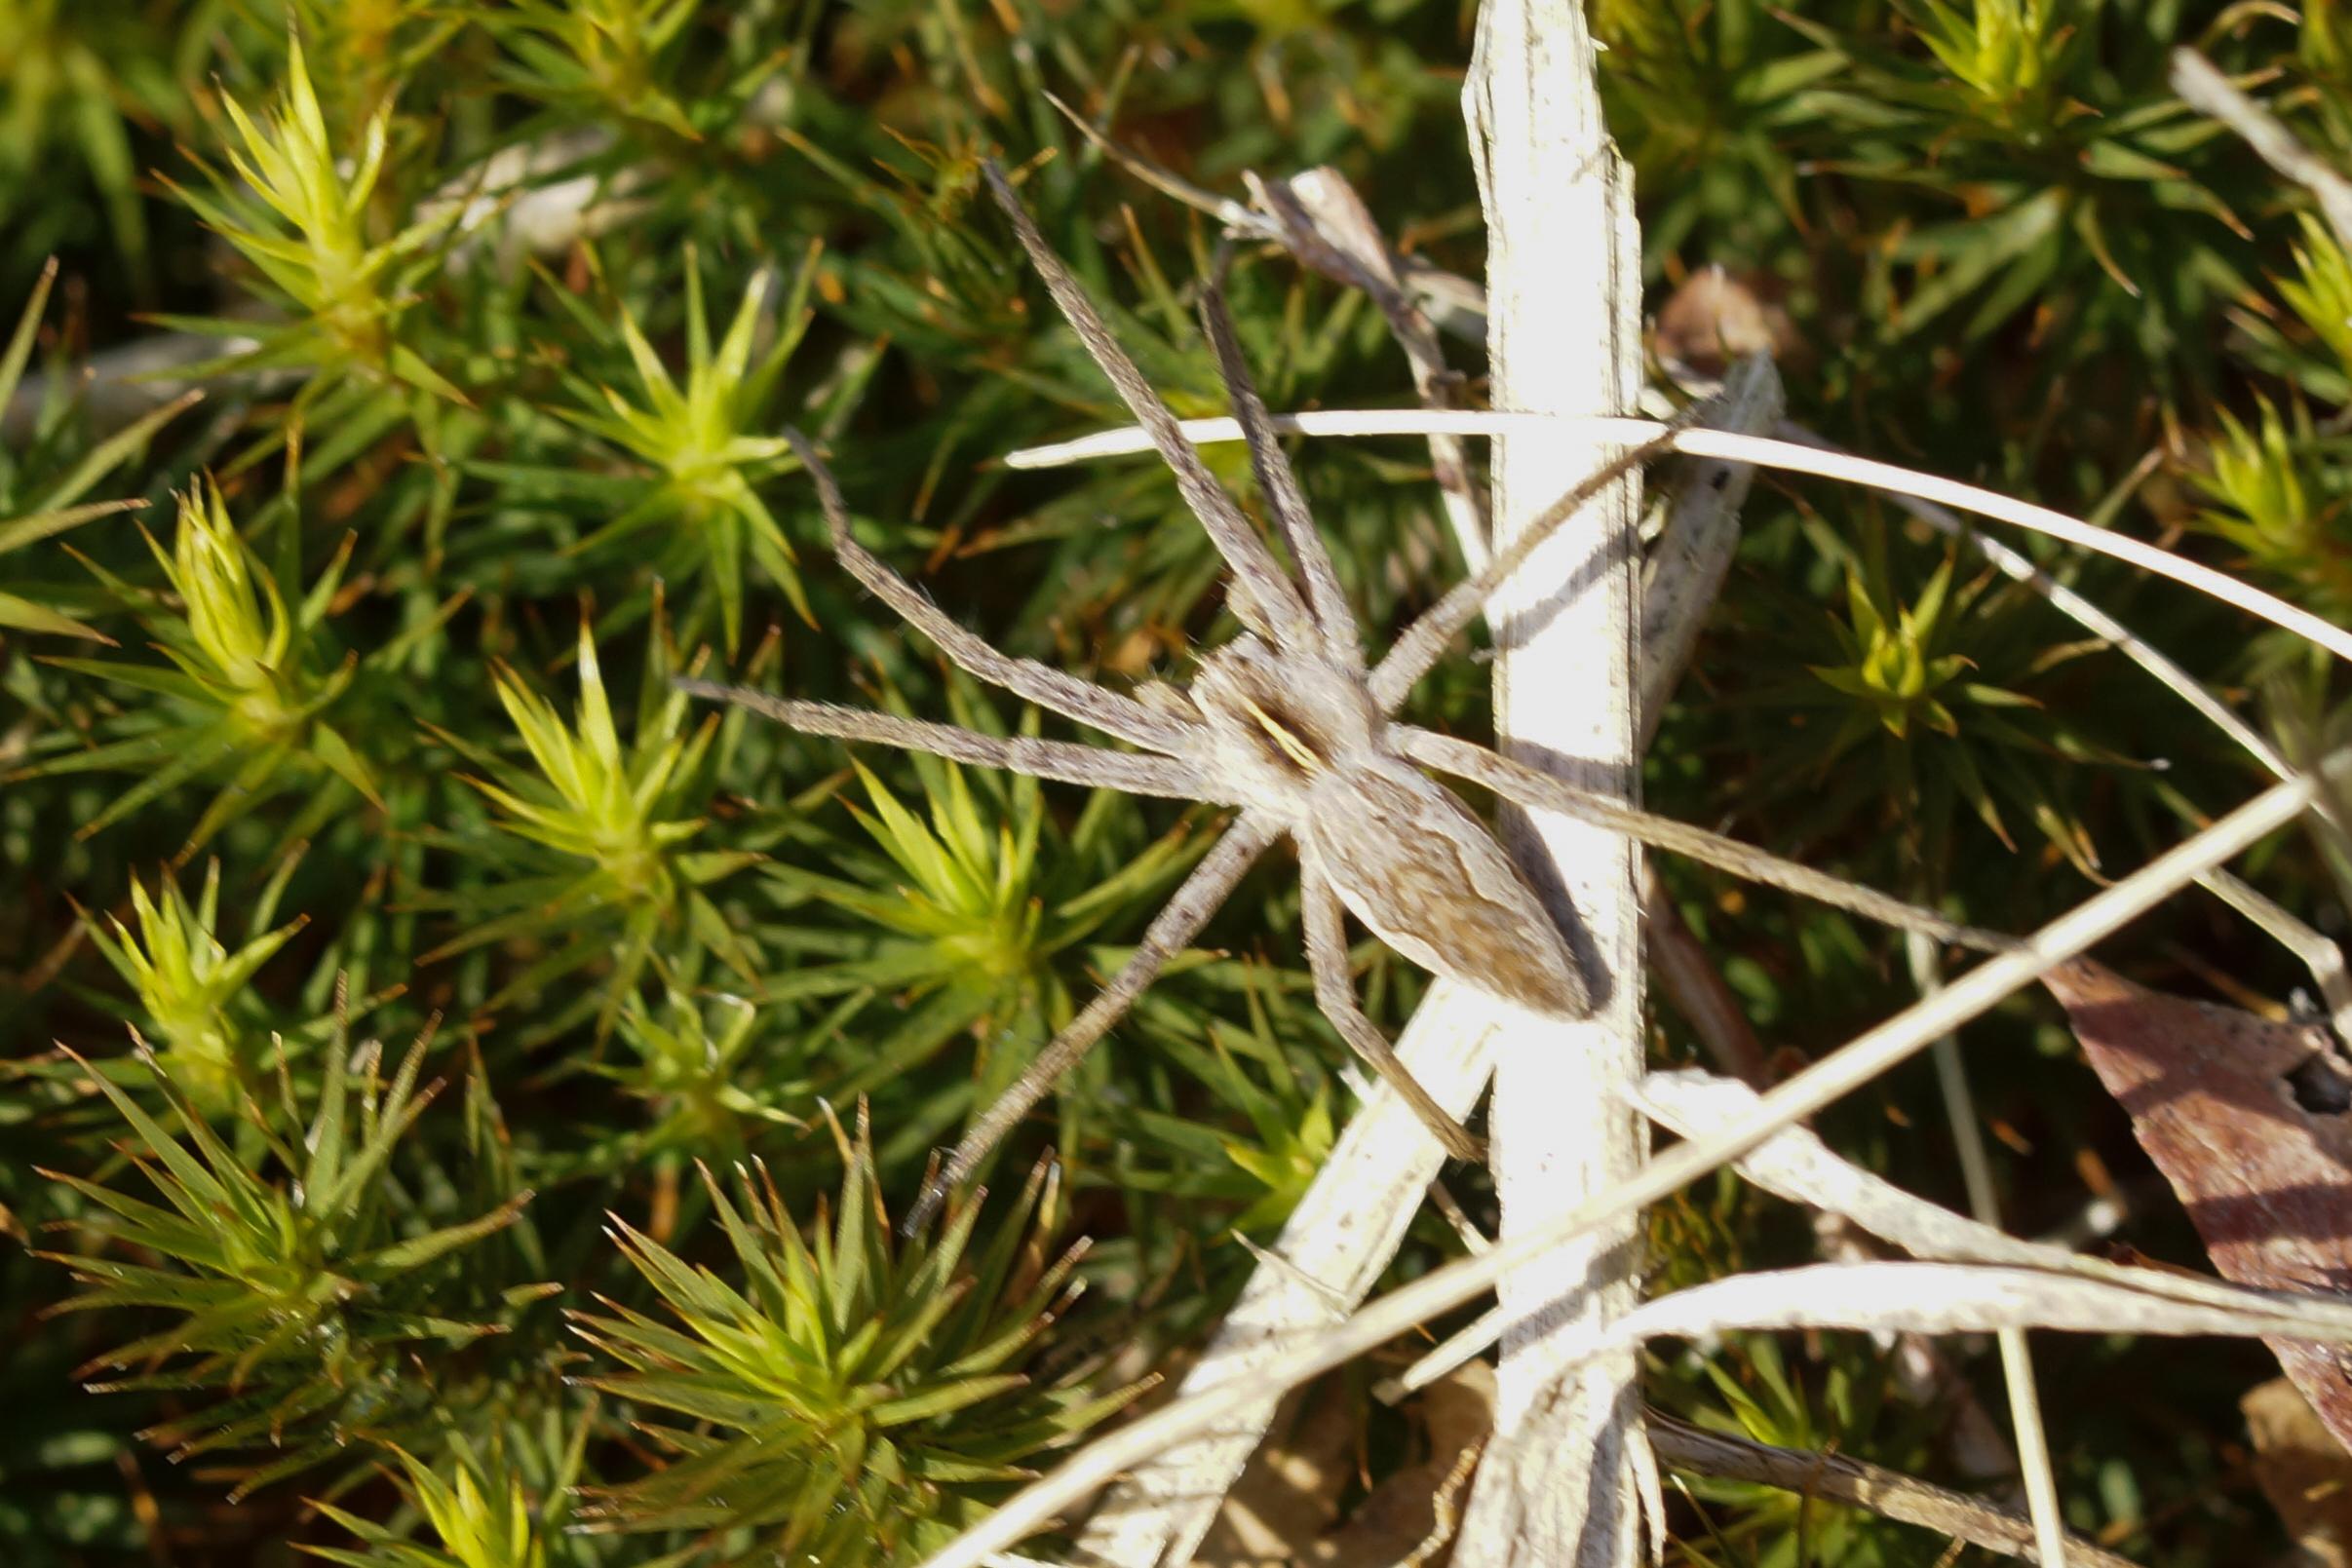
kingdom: Animalia
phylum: Arthropoda
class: Arachnida
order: Araneae
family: Pisauridae
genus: Pisaura
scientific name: Pisaura mirabilis
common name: Almindelig rovedderkop
